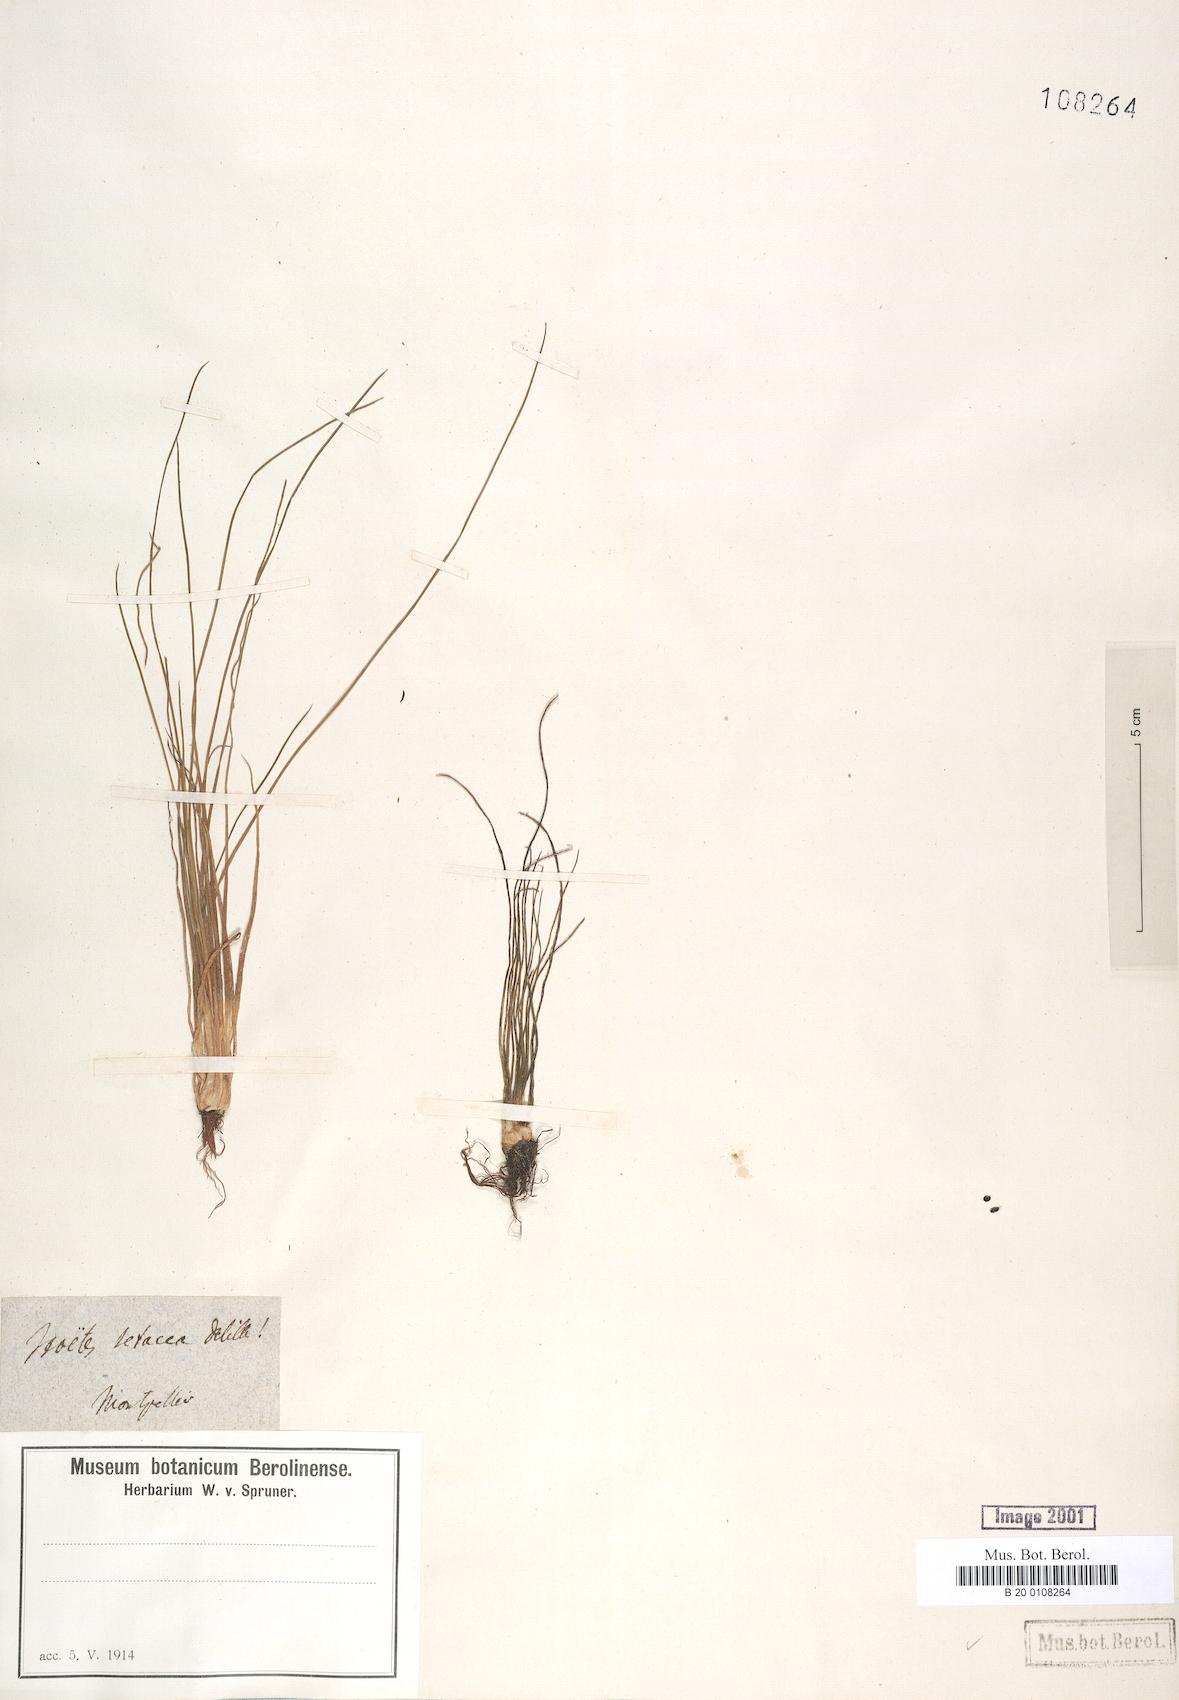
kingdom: Plantae
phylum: Tracheophyta
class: Lycopodiopsida
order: Isoetales
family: Isoetaceae
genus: Isoetes
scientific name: Isoetes lacustris
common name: Common quillwort
